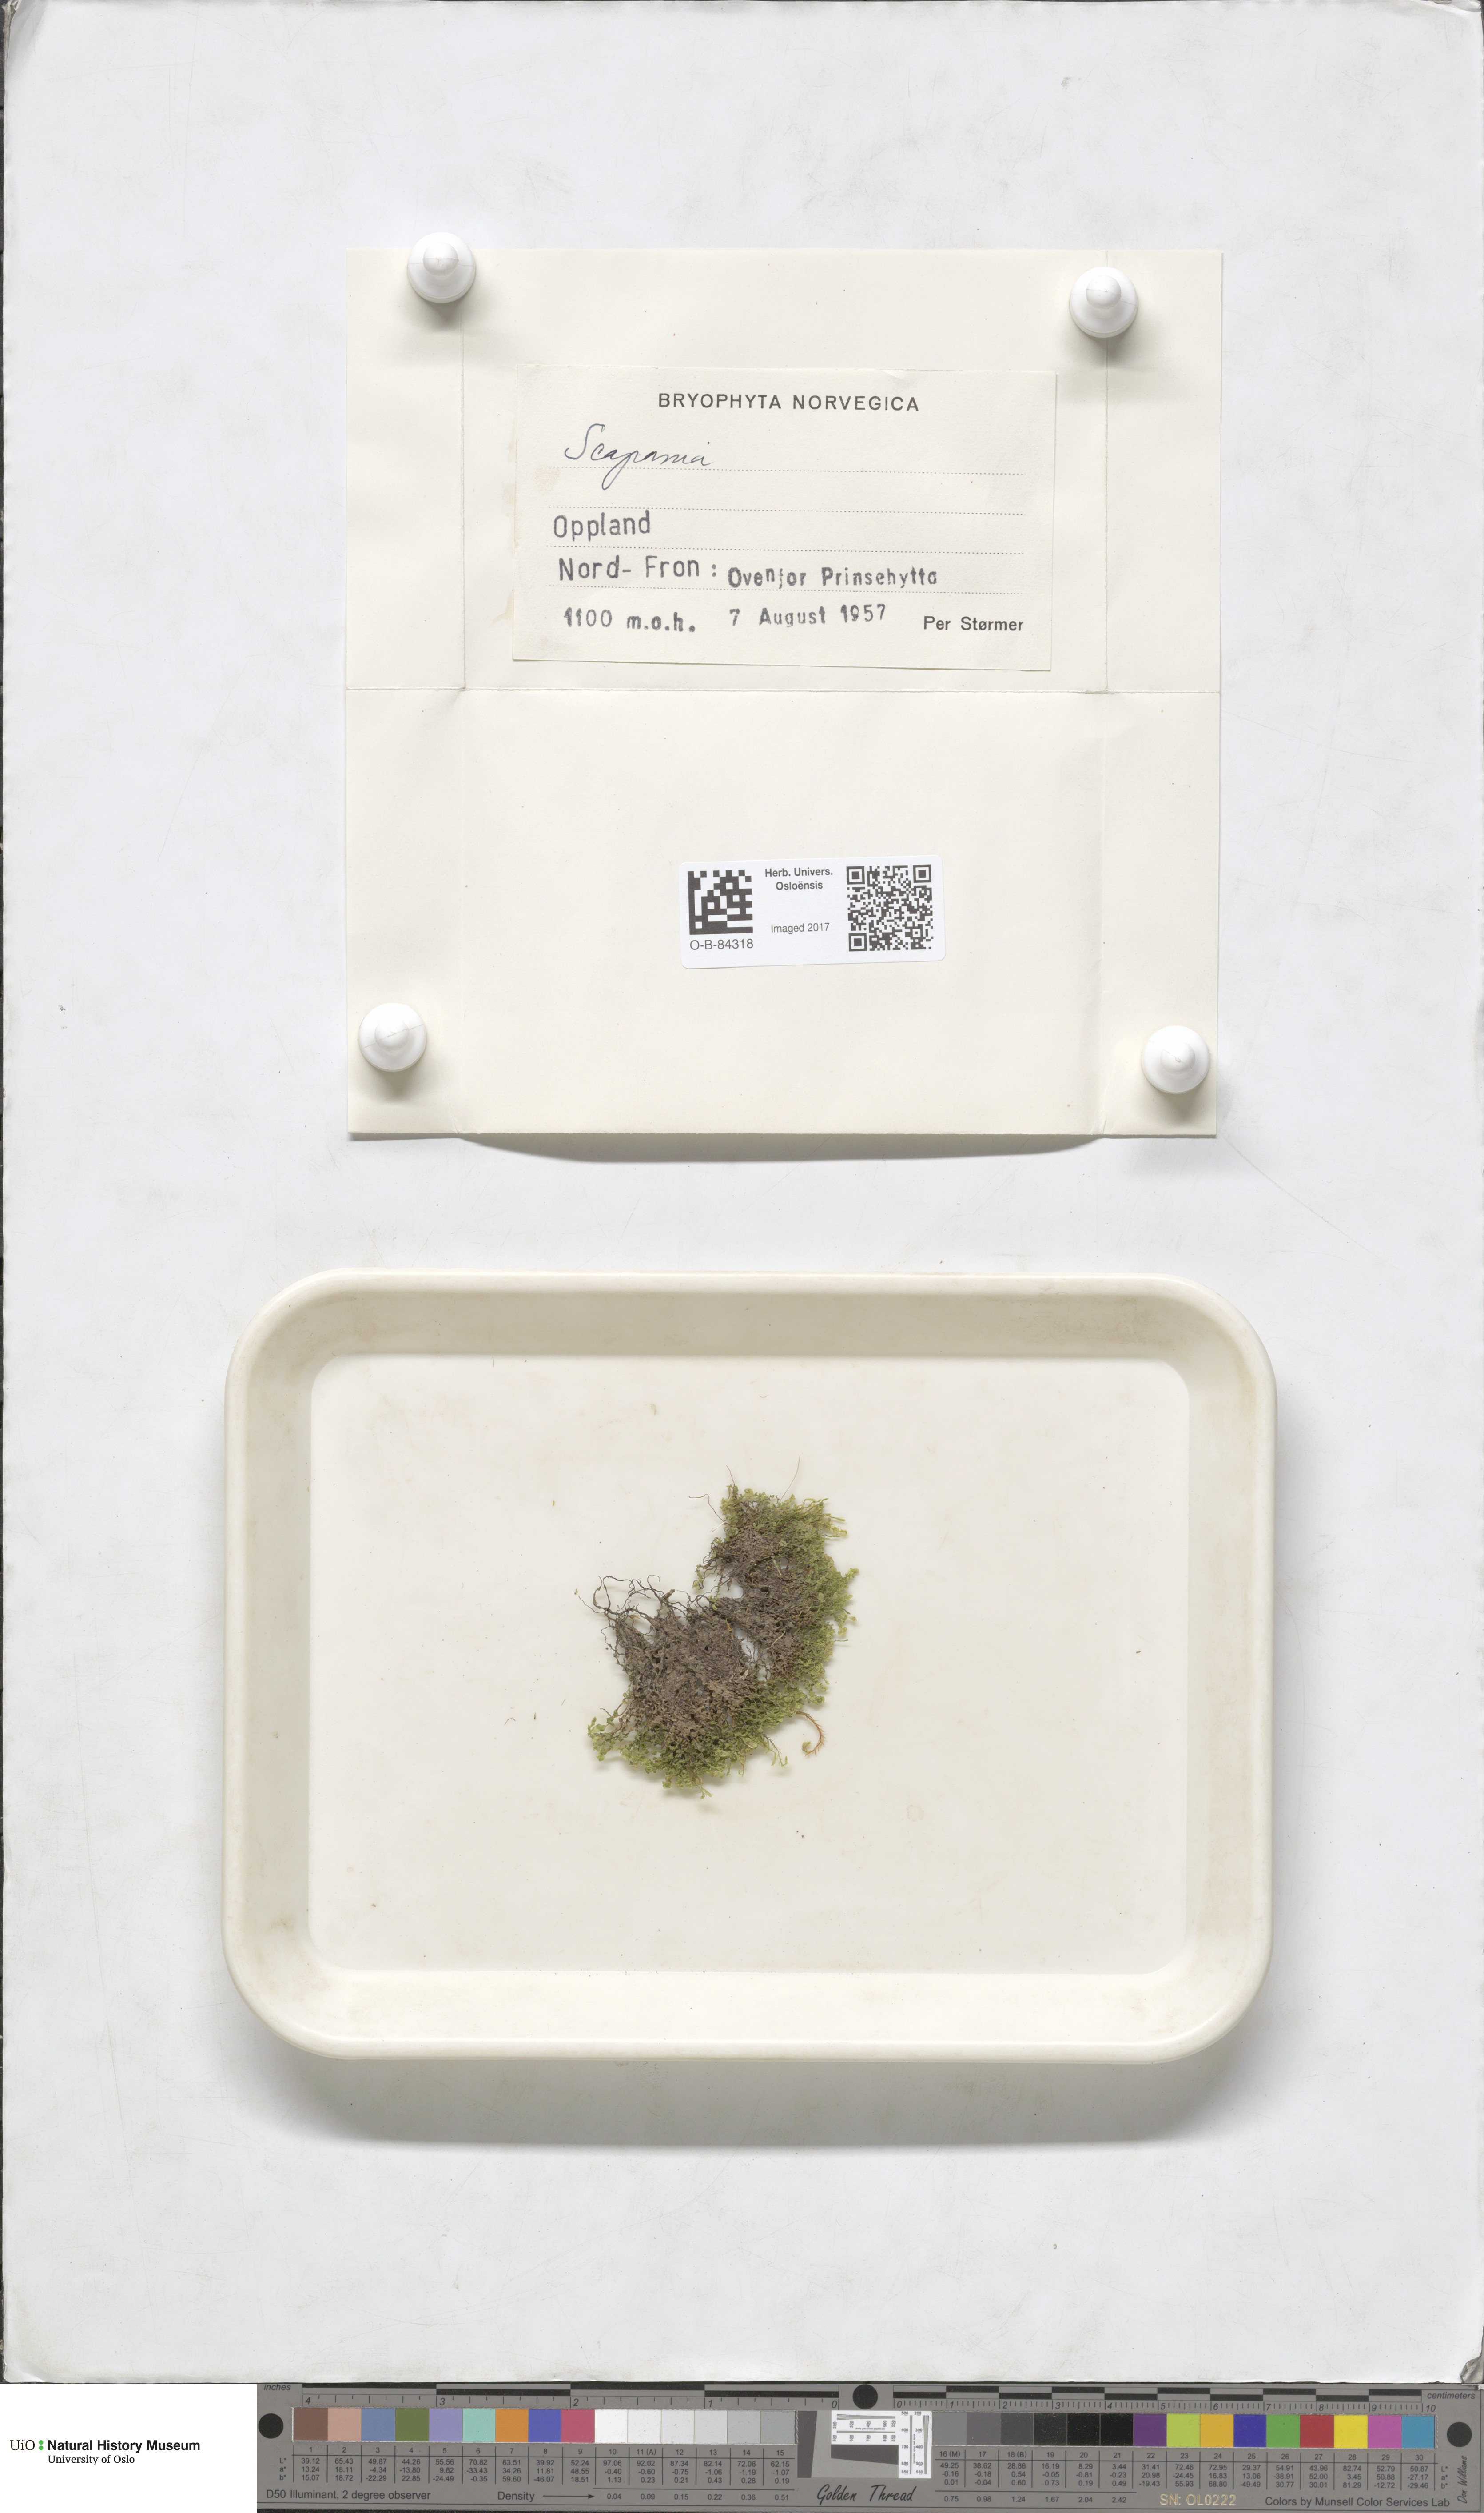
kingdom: Plantae
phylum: Marchantiophyta
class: Jungermanniopsida
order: Jungermanniales
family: Scapaniaceae
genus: Scapania
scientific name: Scapania
